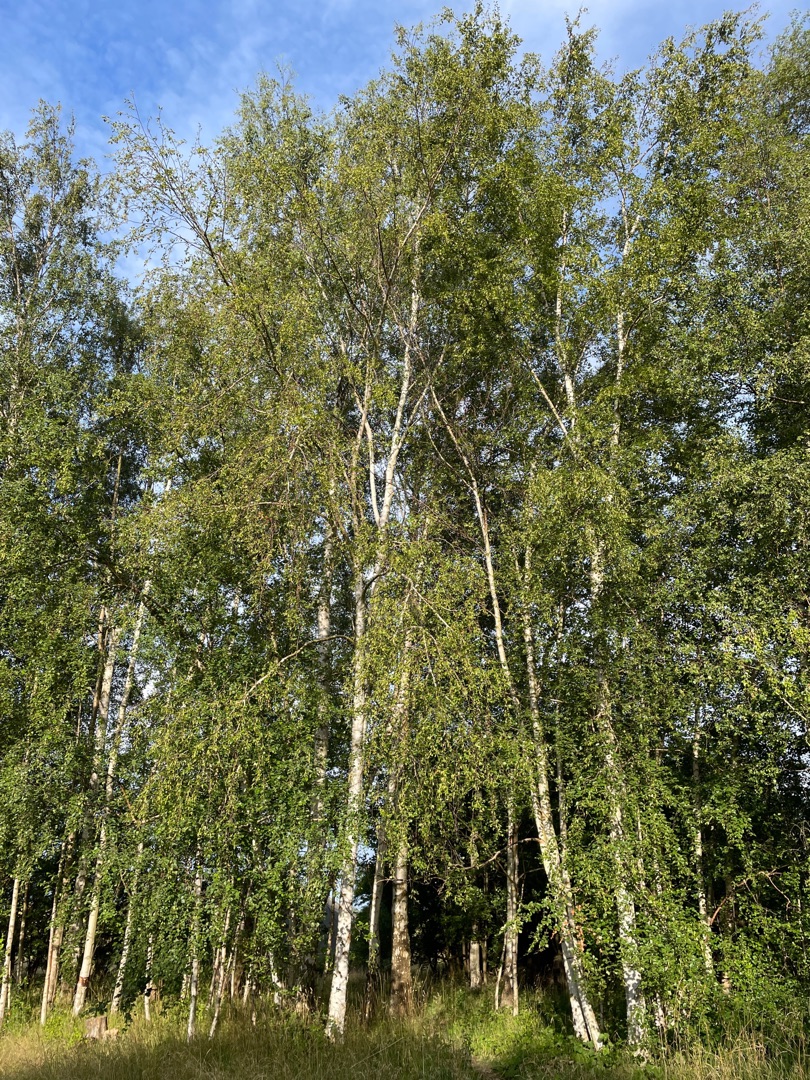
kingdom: Plantae
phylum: Tracheophyta
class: Magnoliopsida
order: Fagales
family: Betulaceae
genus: Betula
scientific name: Betula
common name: Birkeslægten
